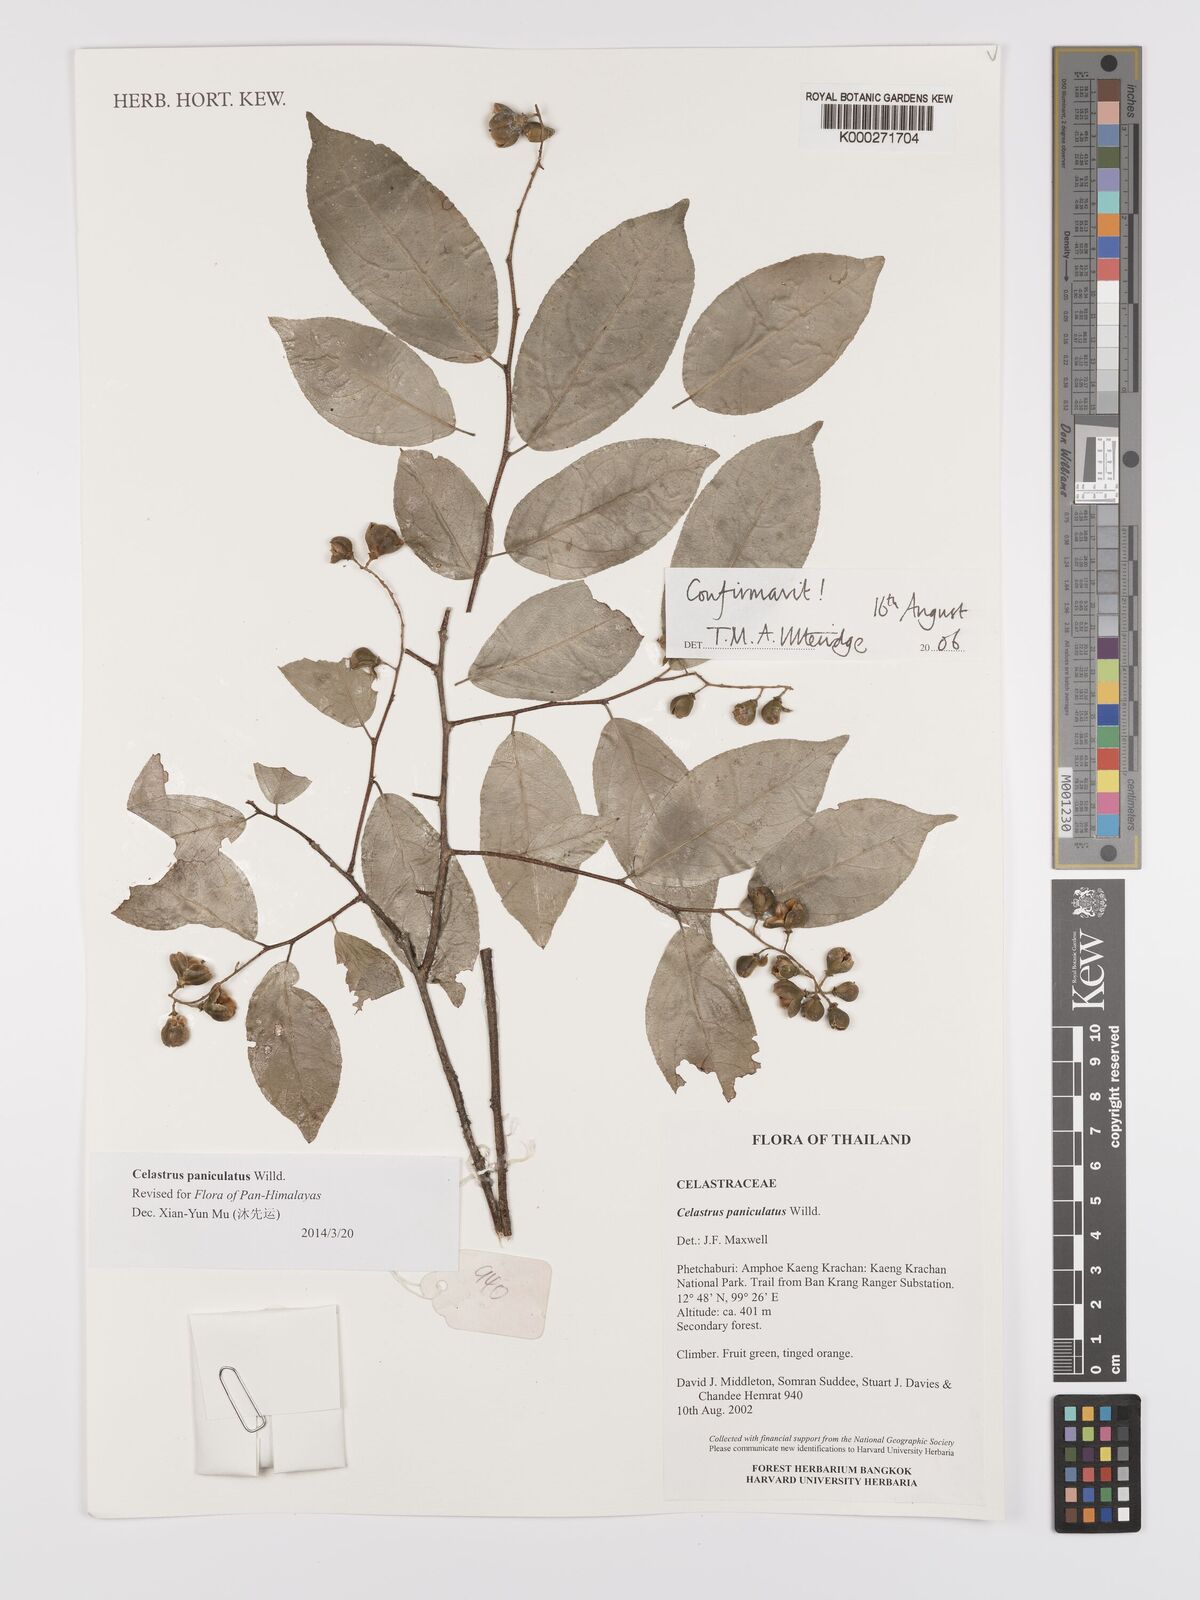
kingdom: Plantae
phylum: Tracheophyta
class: Magnoliopsida
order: Celastrales
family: Celastraceae
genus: Celastrus
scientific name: Celastrus paniculatus
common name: Oriental bittersweet; staff vine
